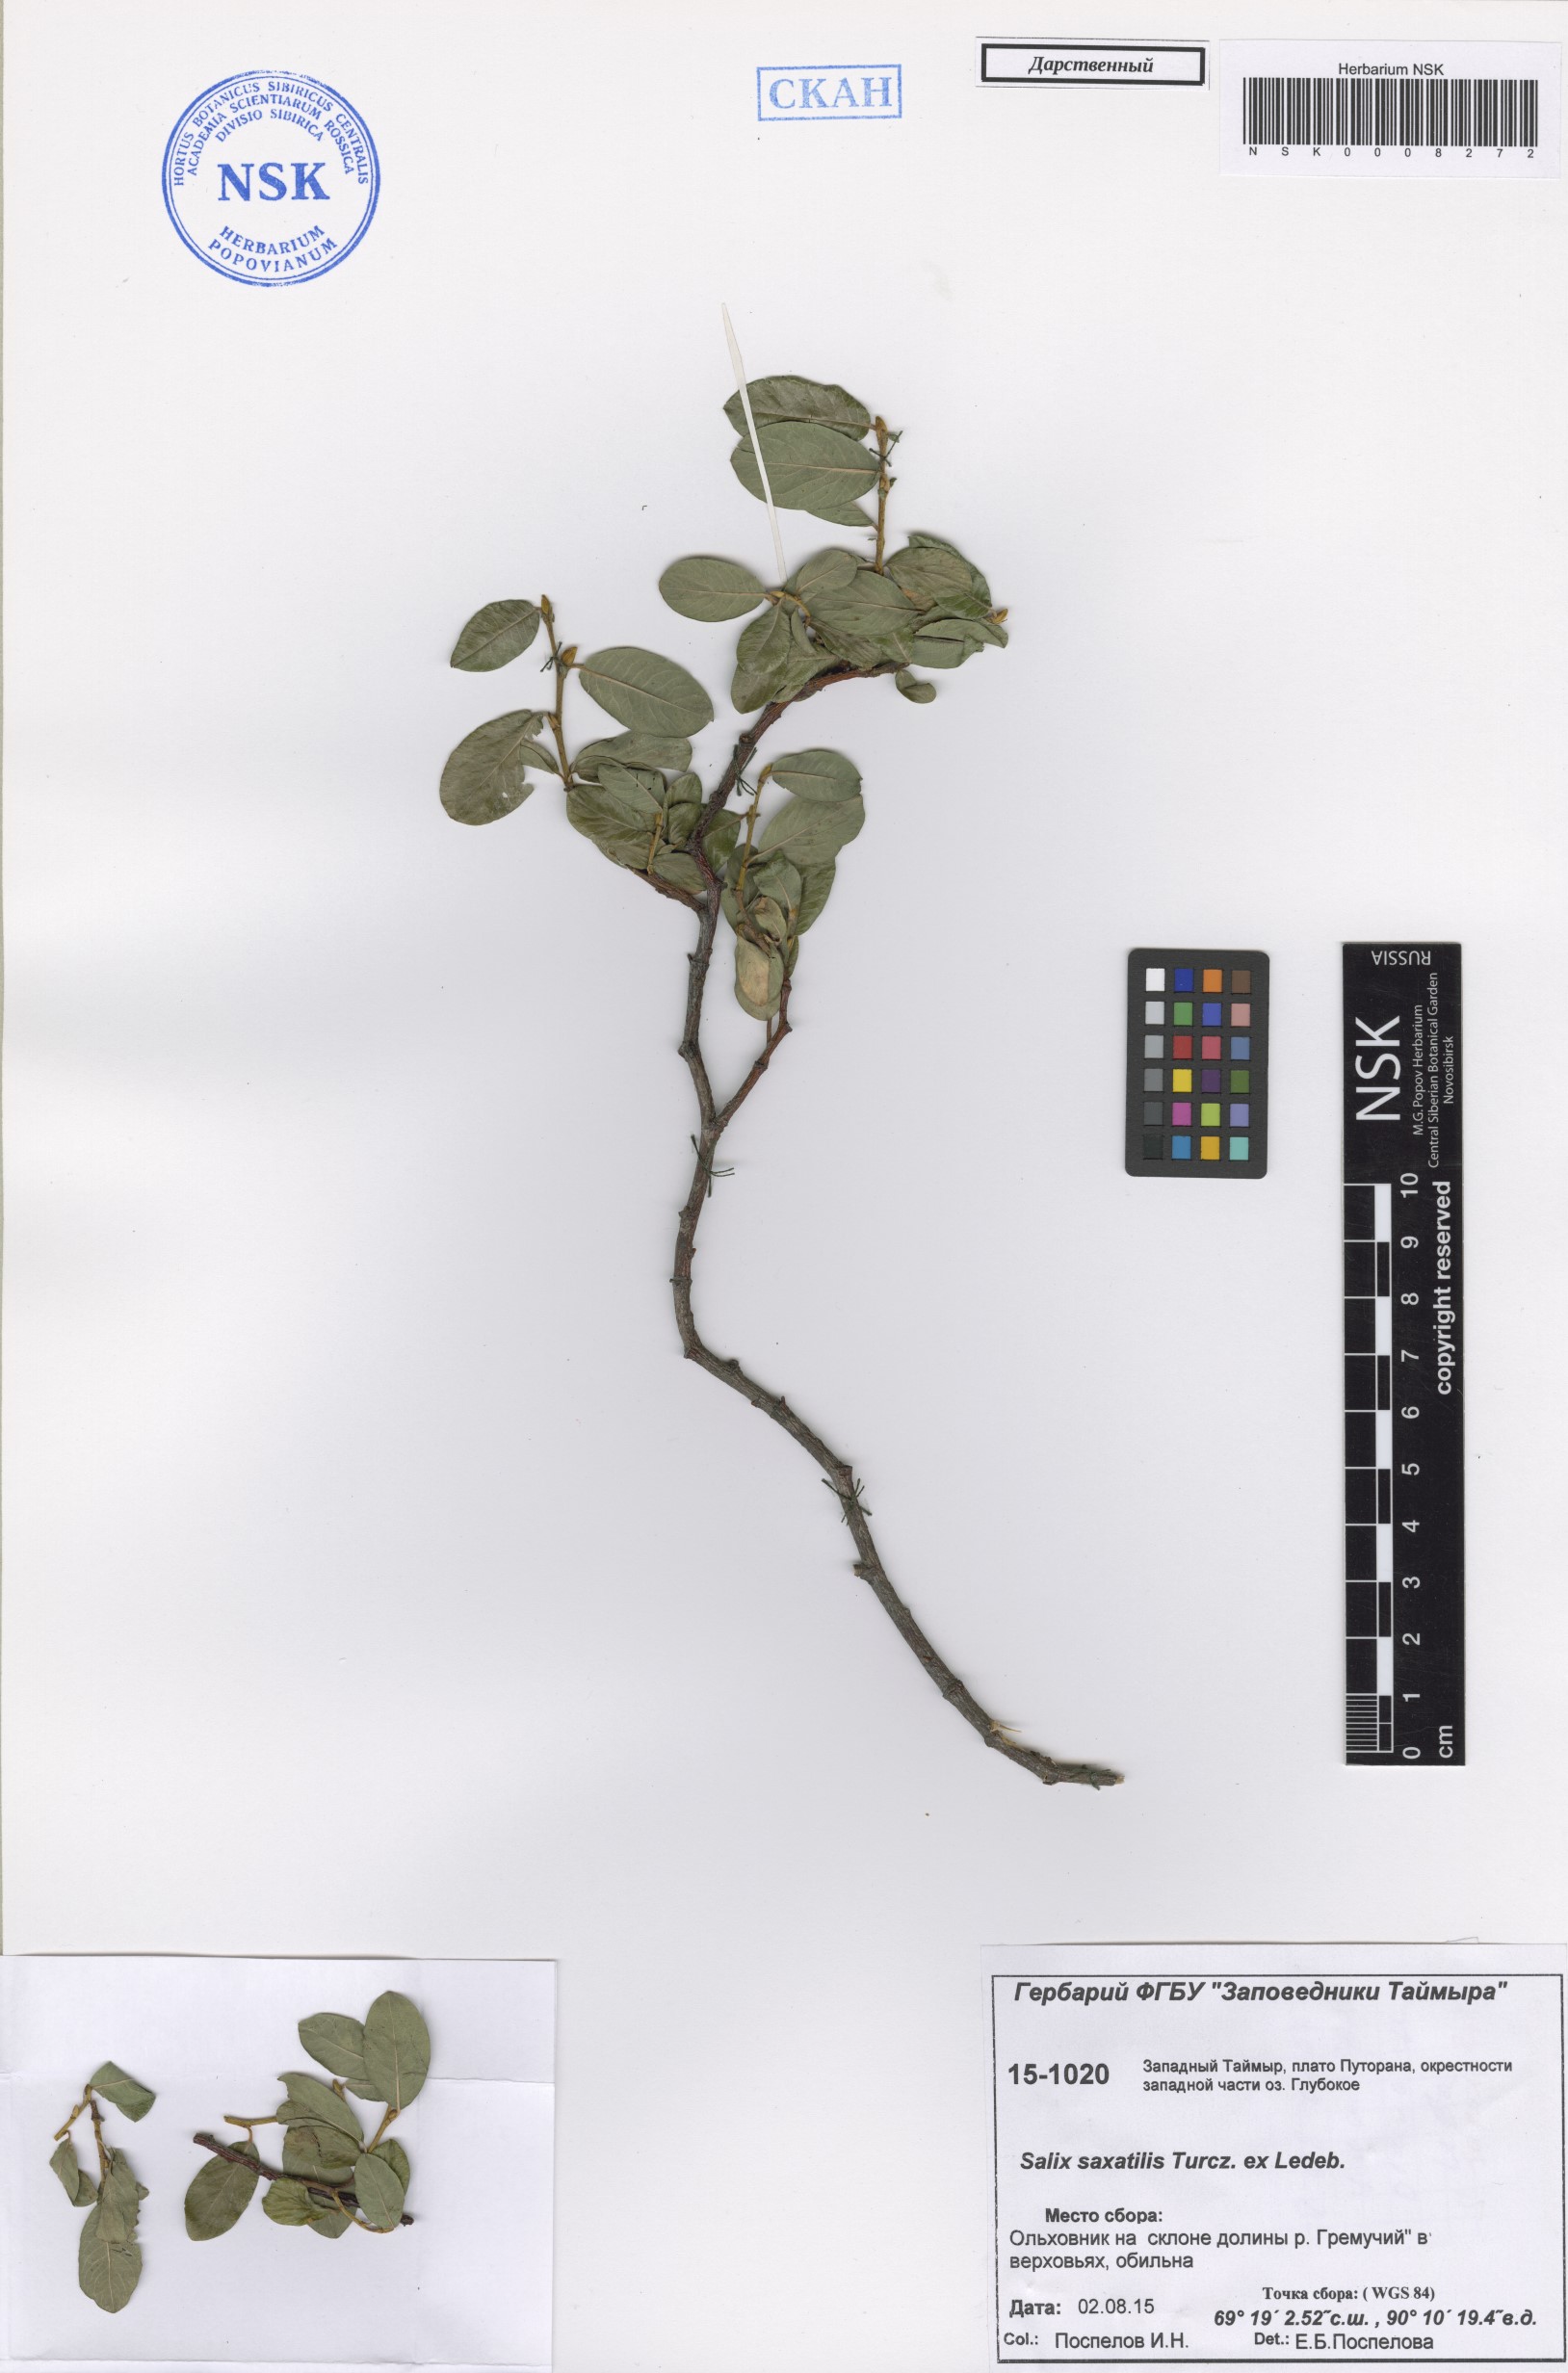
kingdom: Plantae
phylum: Tracheophyta
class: Magnoliopsida
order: Malpighiales
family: Salicaceae
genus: Salix
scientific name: Salix saxatilis
